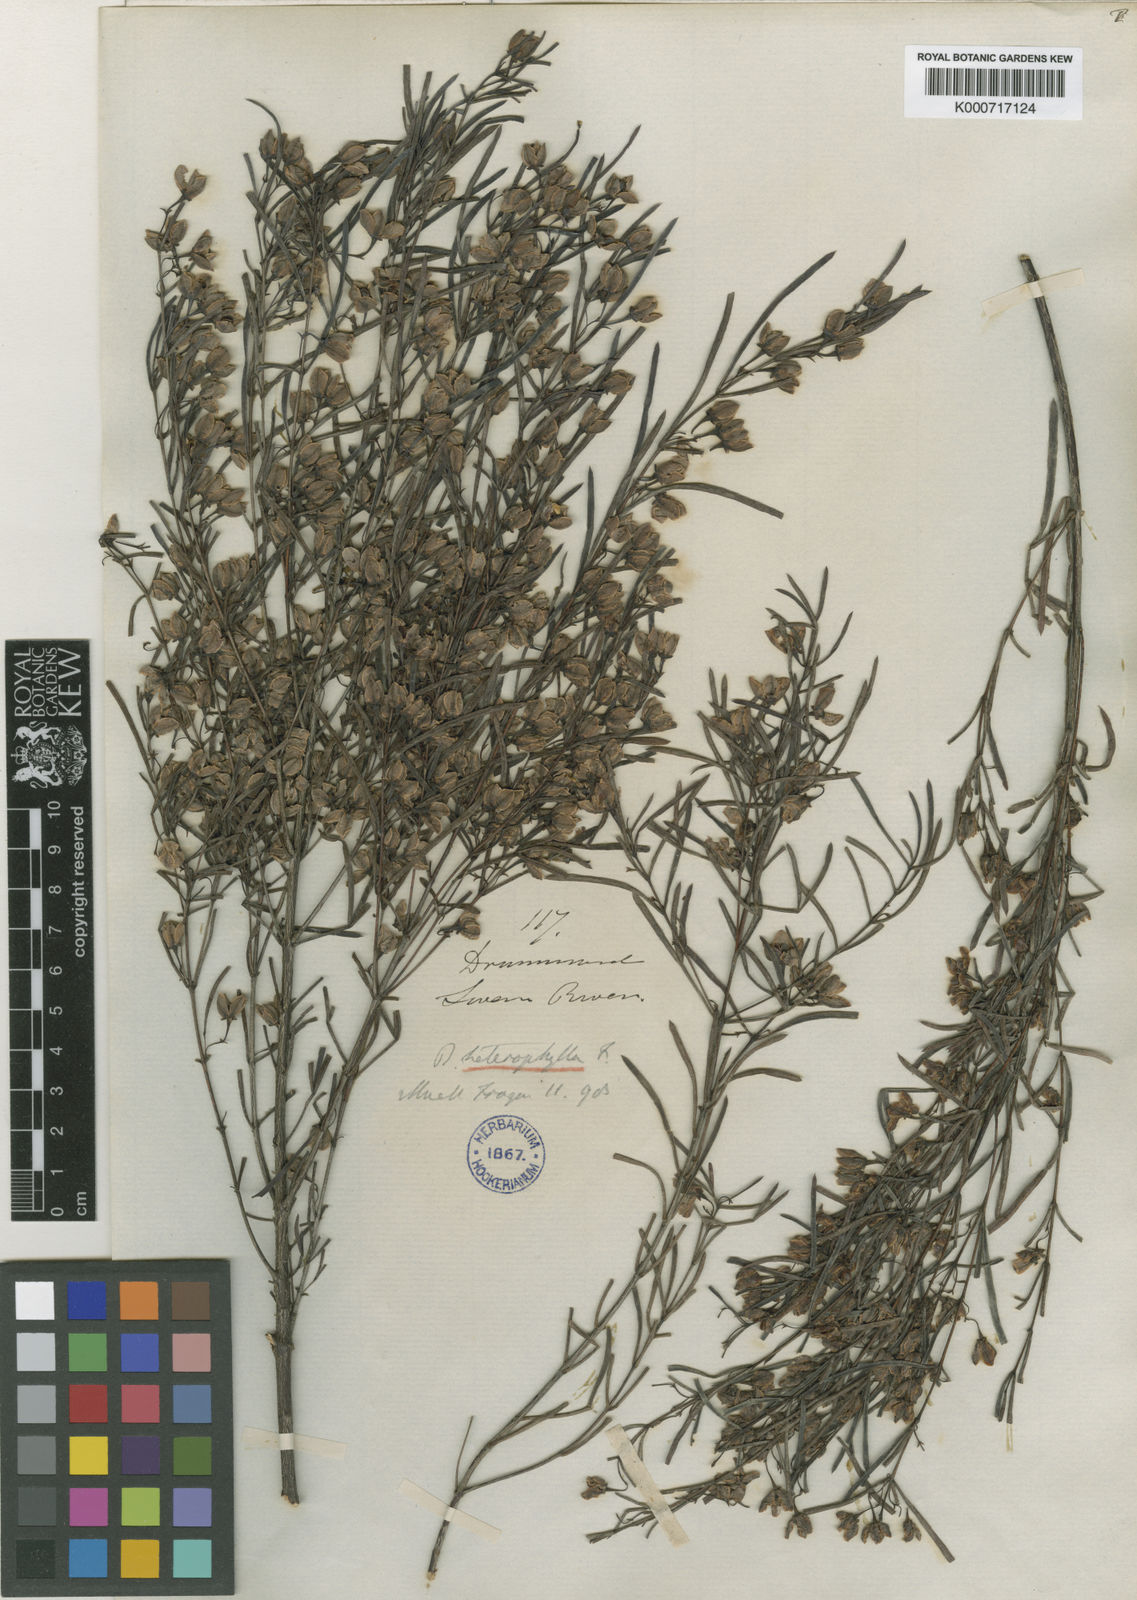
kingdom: Plantae
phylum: Tracheophyta
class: Magnoliopsida
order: Sapindales
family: Rutaceae
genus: Boronia
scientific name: Boronia heterophylla
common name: Kalgan boronia
